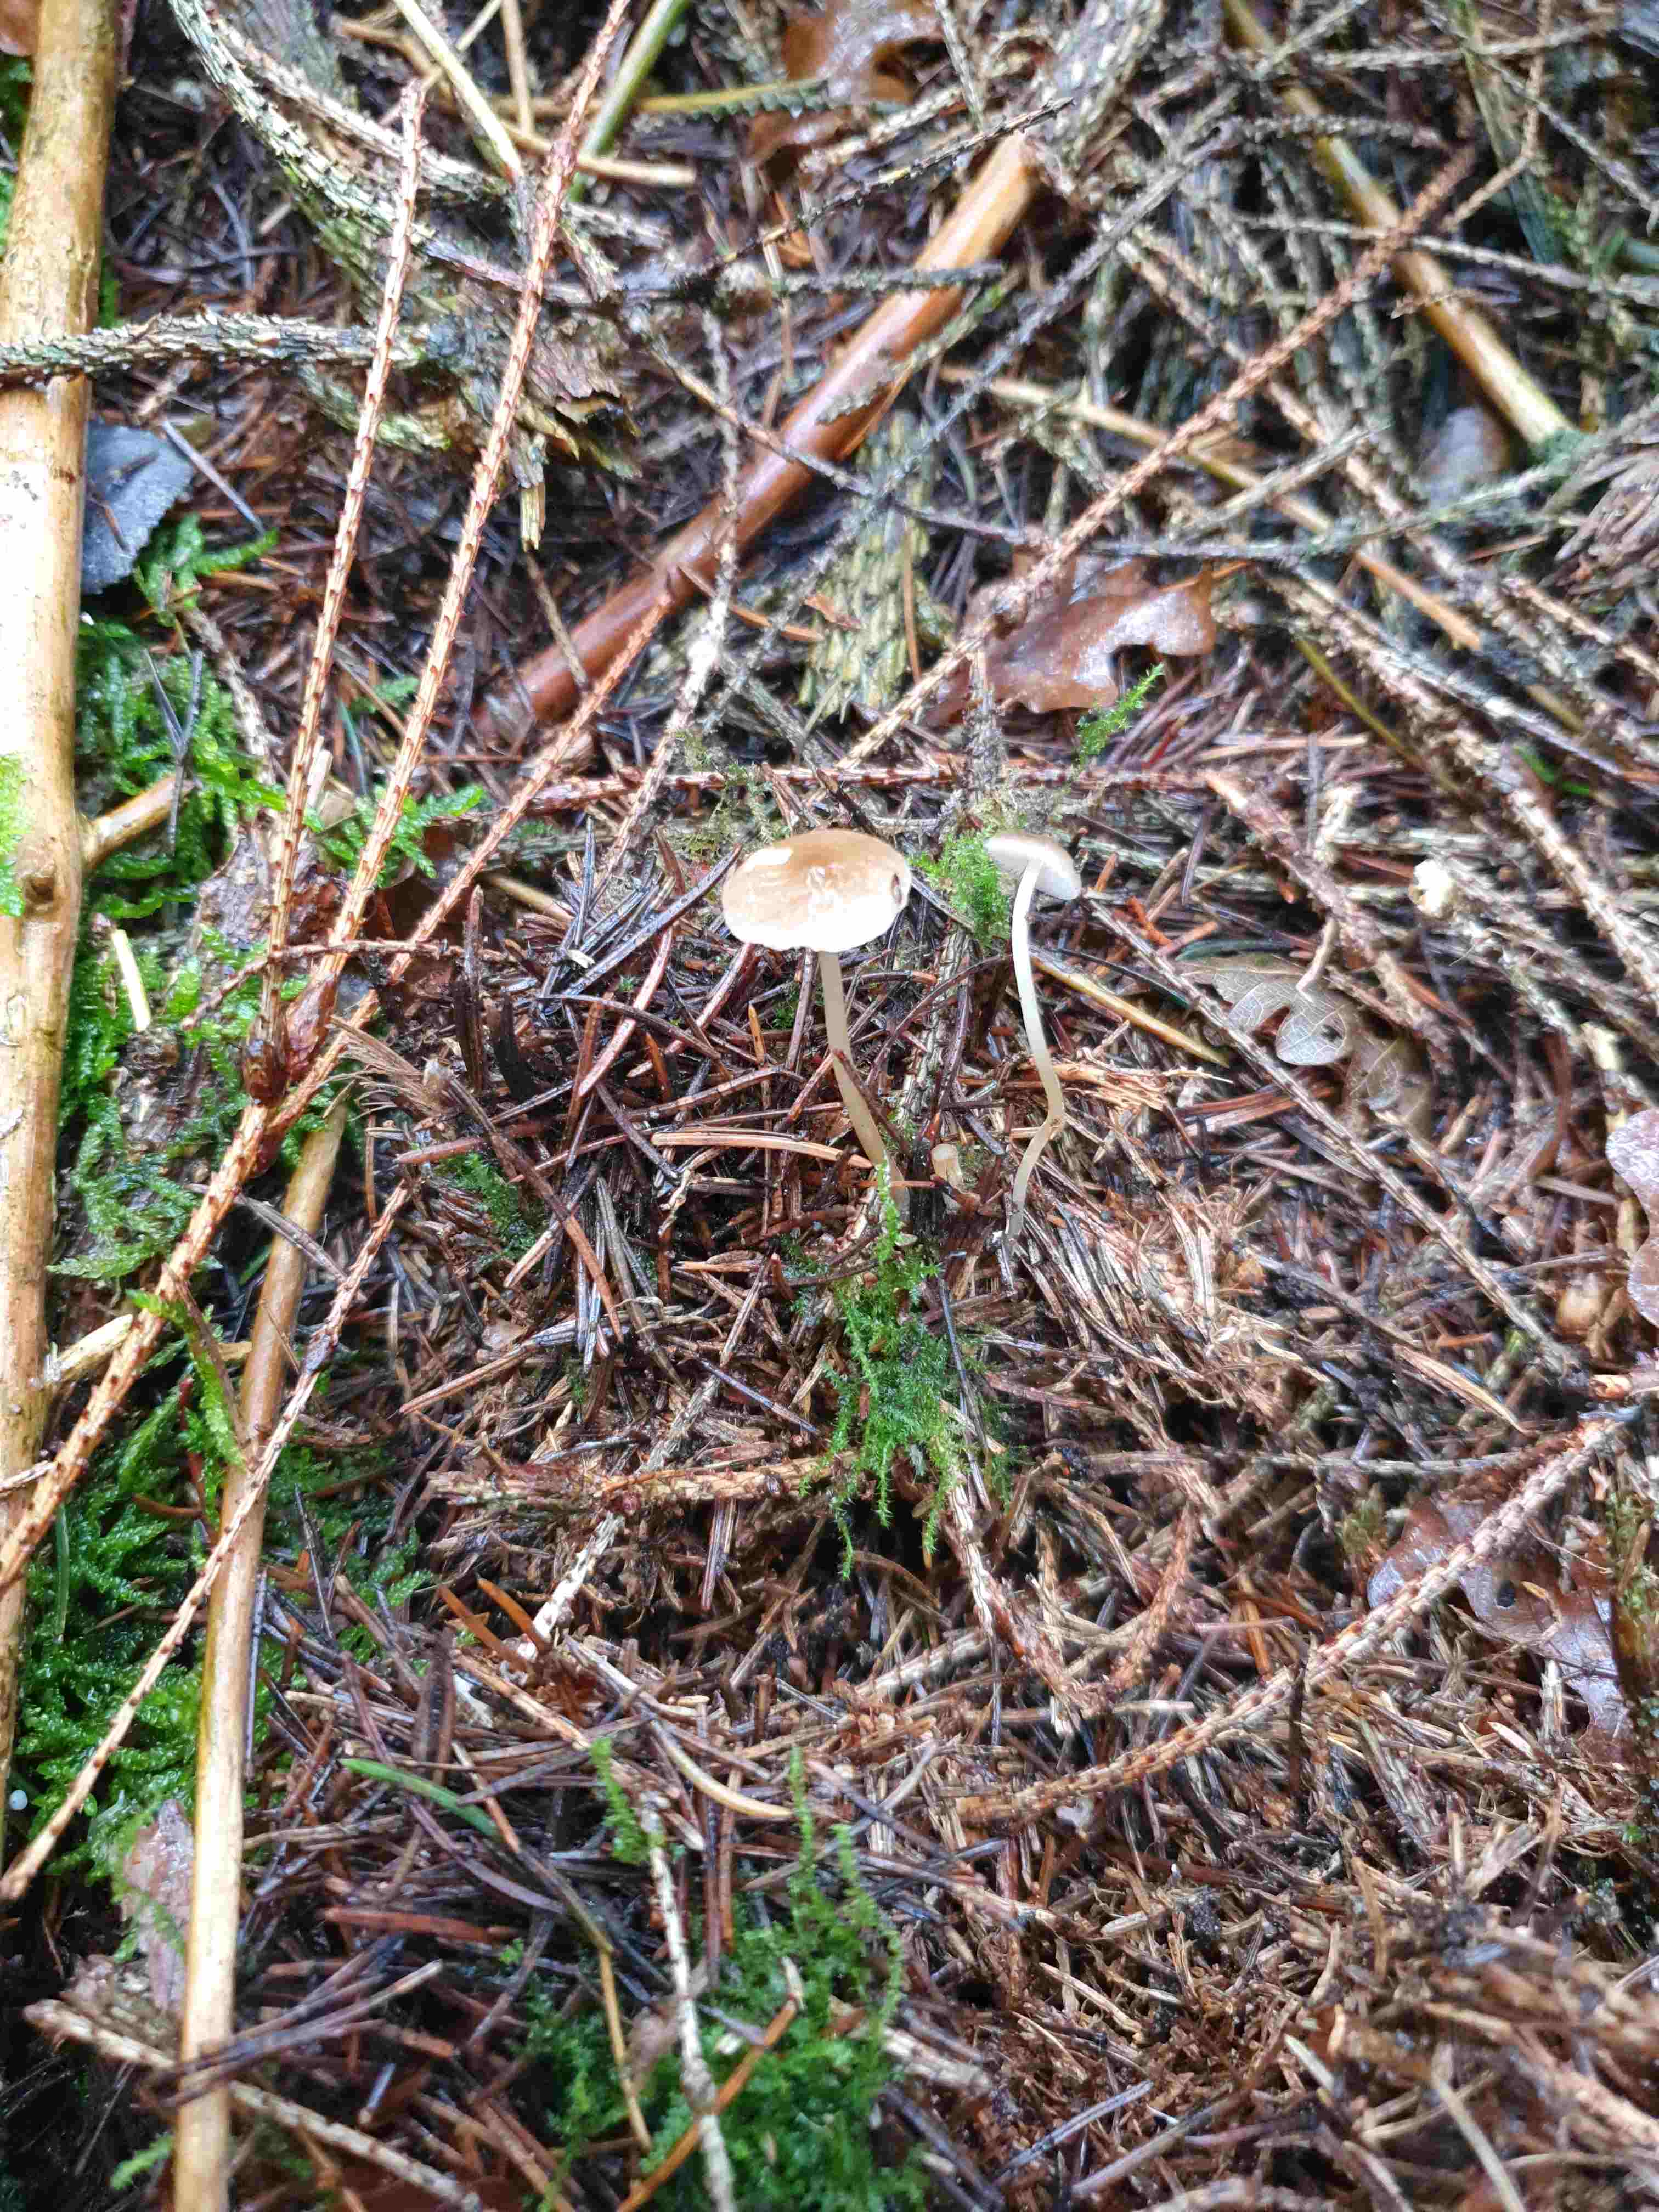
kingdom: Fungi
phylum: Basidiomycota
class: Agaricomycetes
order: Agaricales
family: Physalacriaceae
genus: Strobilurus
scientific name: Strobilurus esculentus
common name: gran-koglehat
